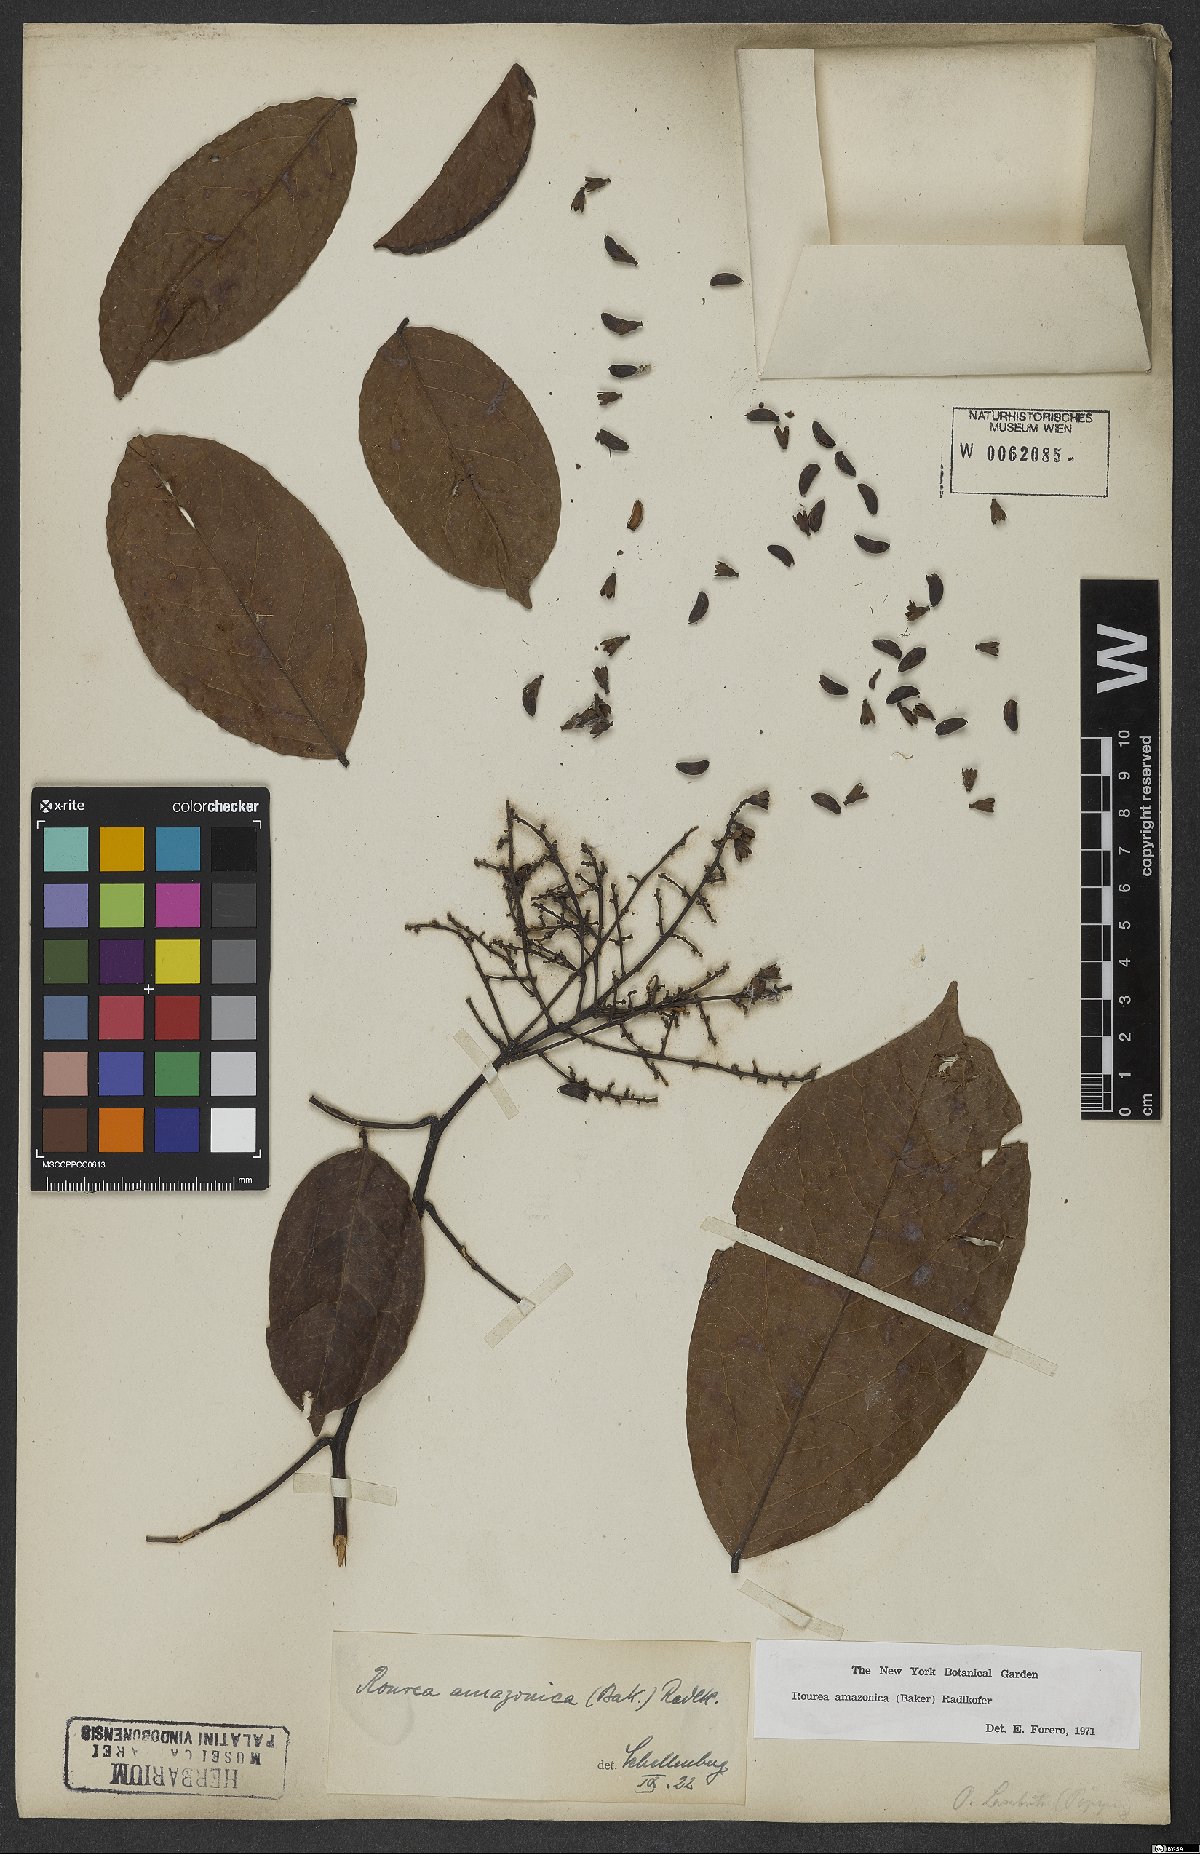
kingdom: Plantae
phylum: Tracheophyta
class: Magnoliopsida
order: Oxalidales
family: Connaraceae
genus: Rourea
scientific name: Rourea amazonica
